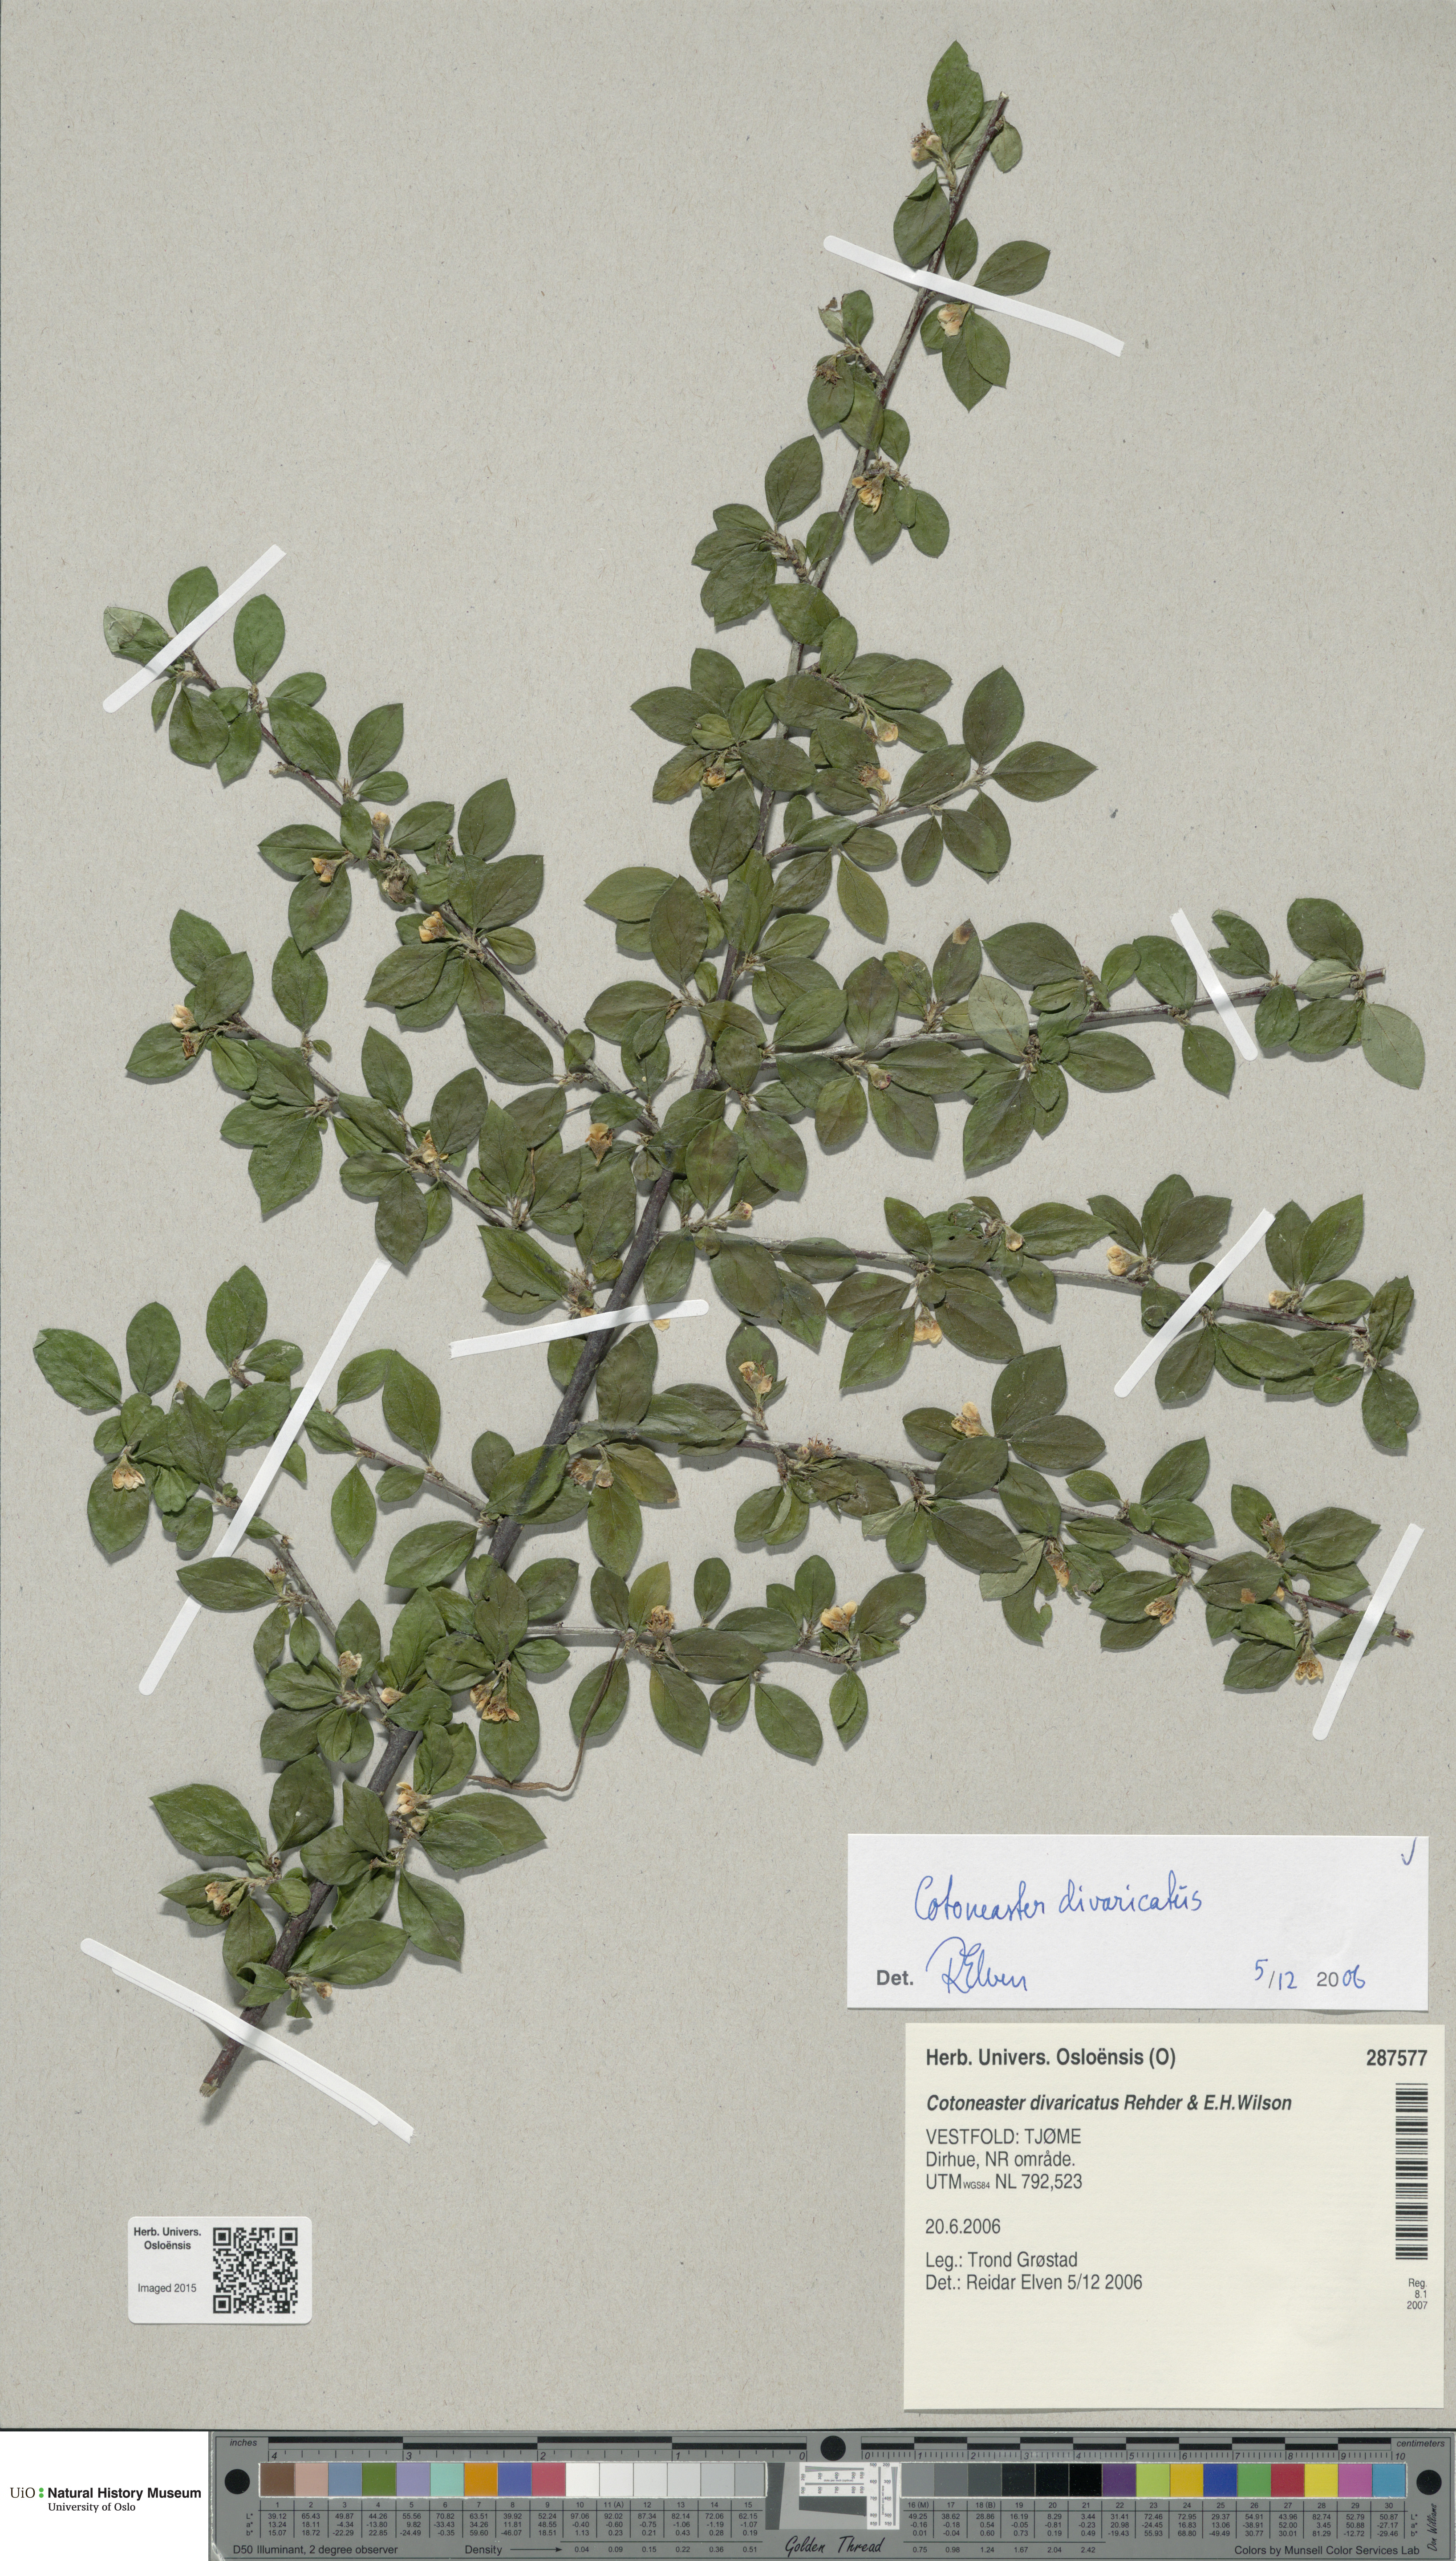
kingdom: Plantae
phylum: Tracheophyta
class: Magnoliopsida
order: Rosales
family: Rosaceae
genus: Cotoneaster
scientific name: Cotoneaster divaricatus
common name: Spreading cotoneaster
